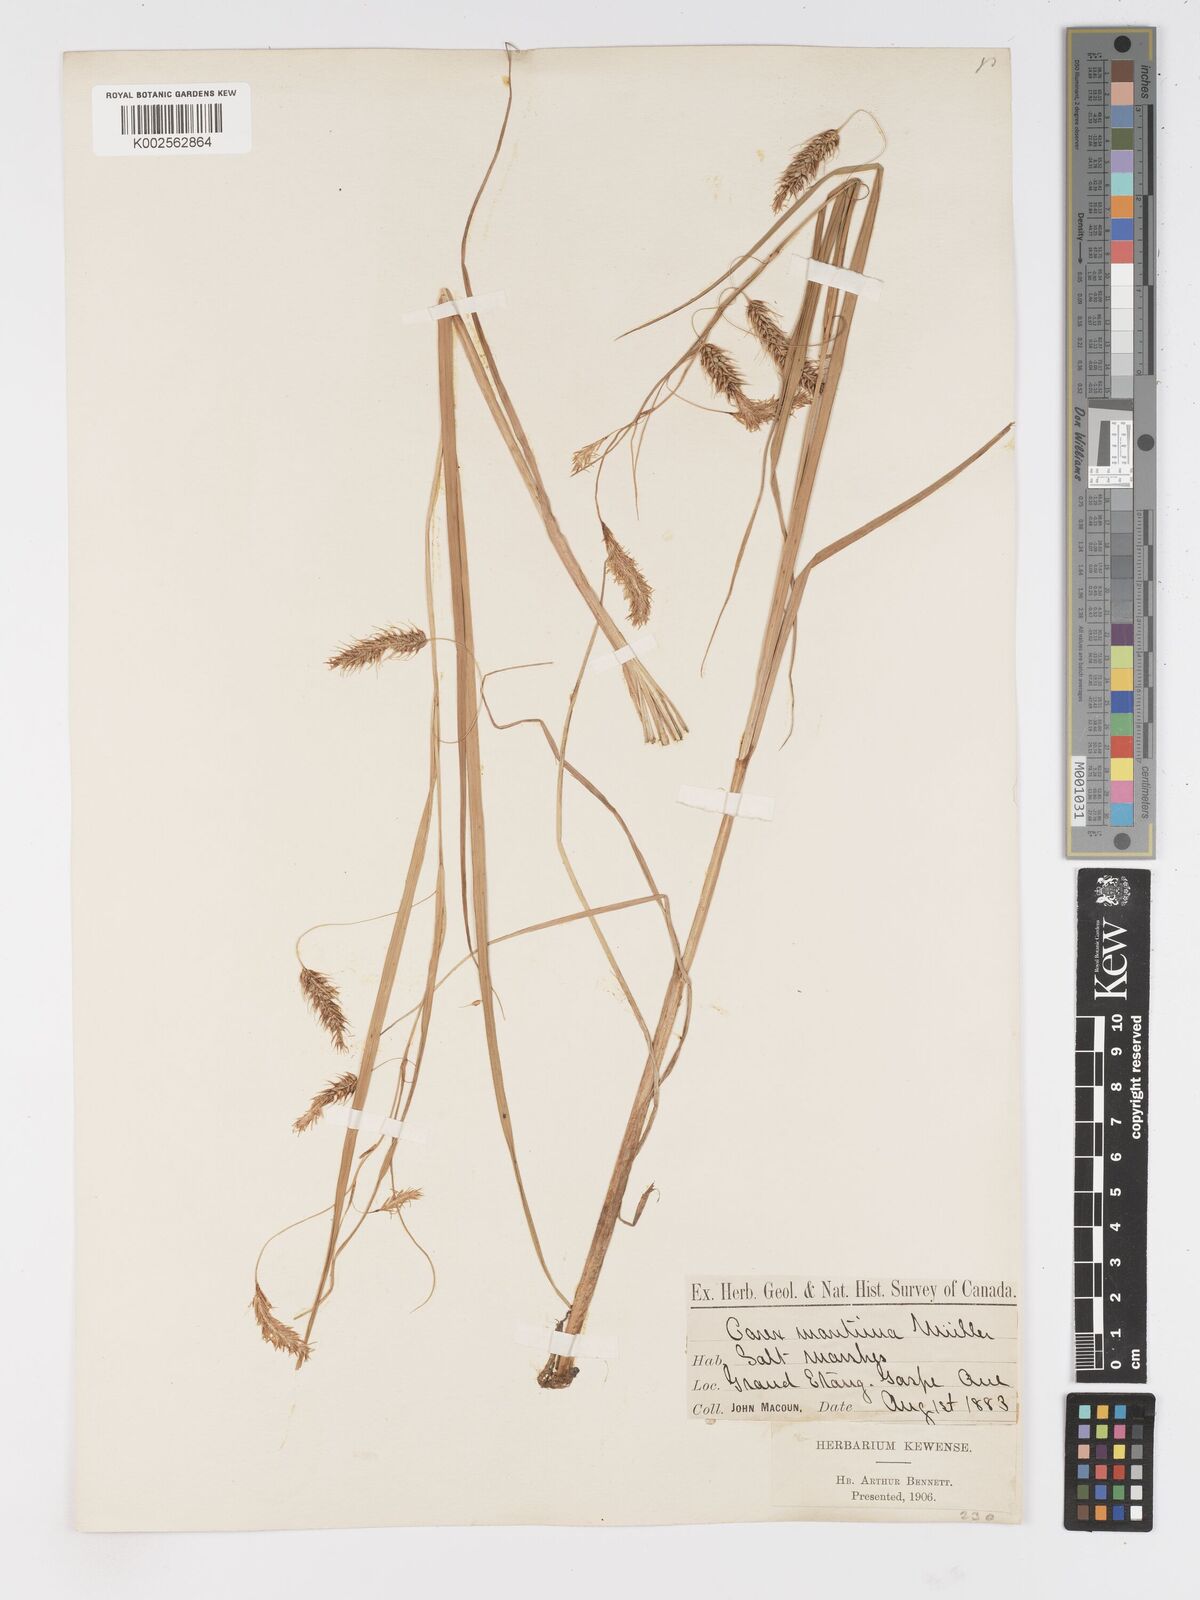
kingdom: Plantae
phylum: Tracheophyta
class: Liliopsida
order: Poales
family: Cyperaceae
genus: Carex
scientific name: Carex paleacea
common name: Chaffy sedge
